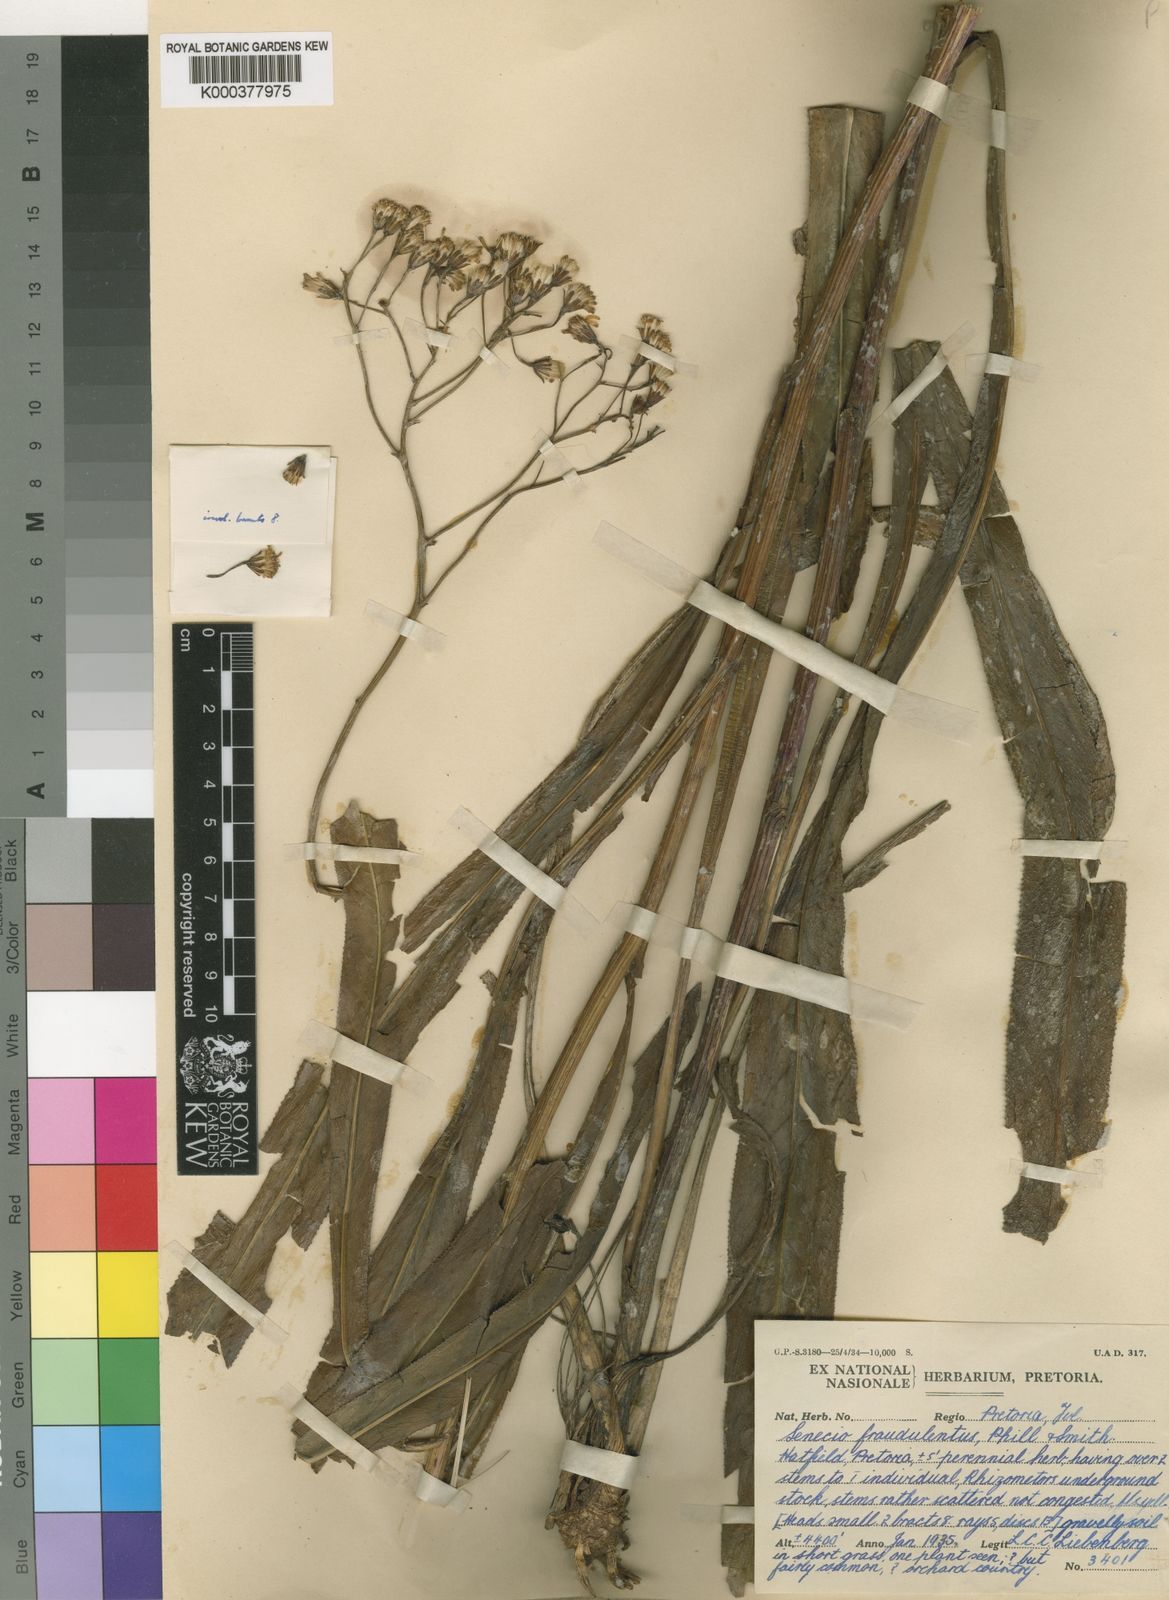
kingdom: Plantae
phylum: Tracheophyta
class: Magnoliopsida
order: Asterales
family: Asteraceae
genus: Senecio
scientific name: Senecio
